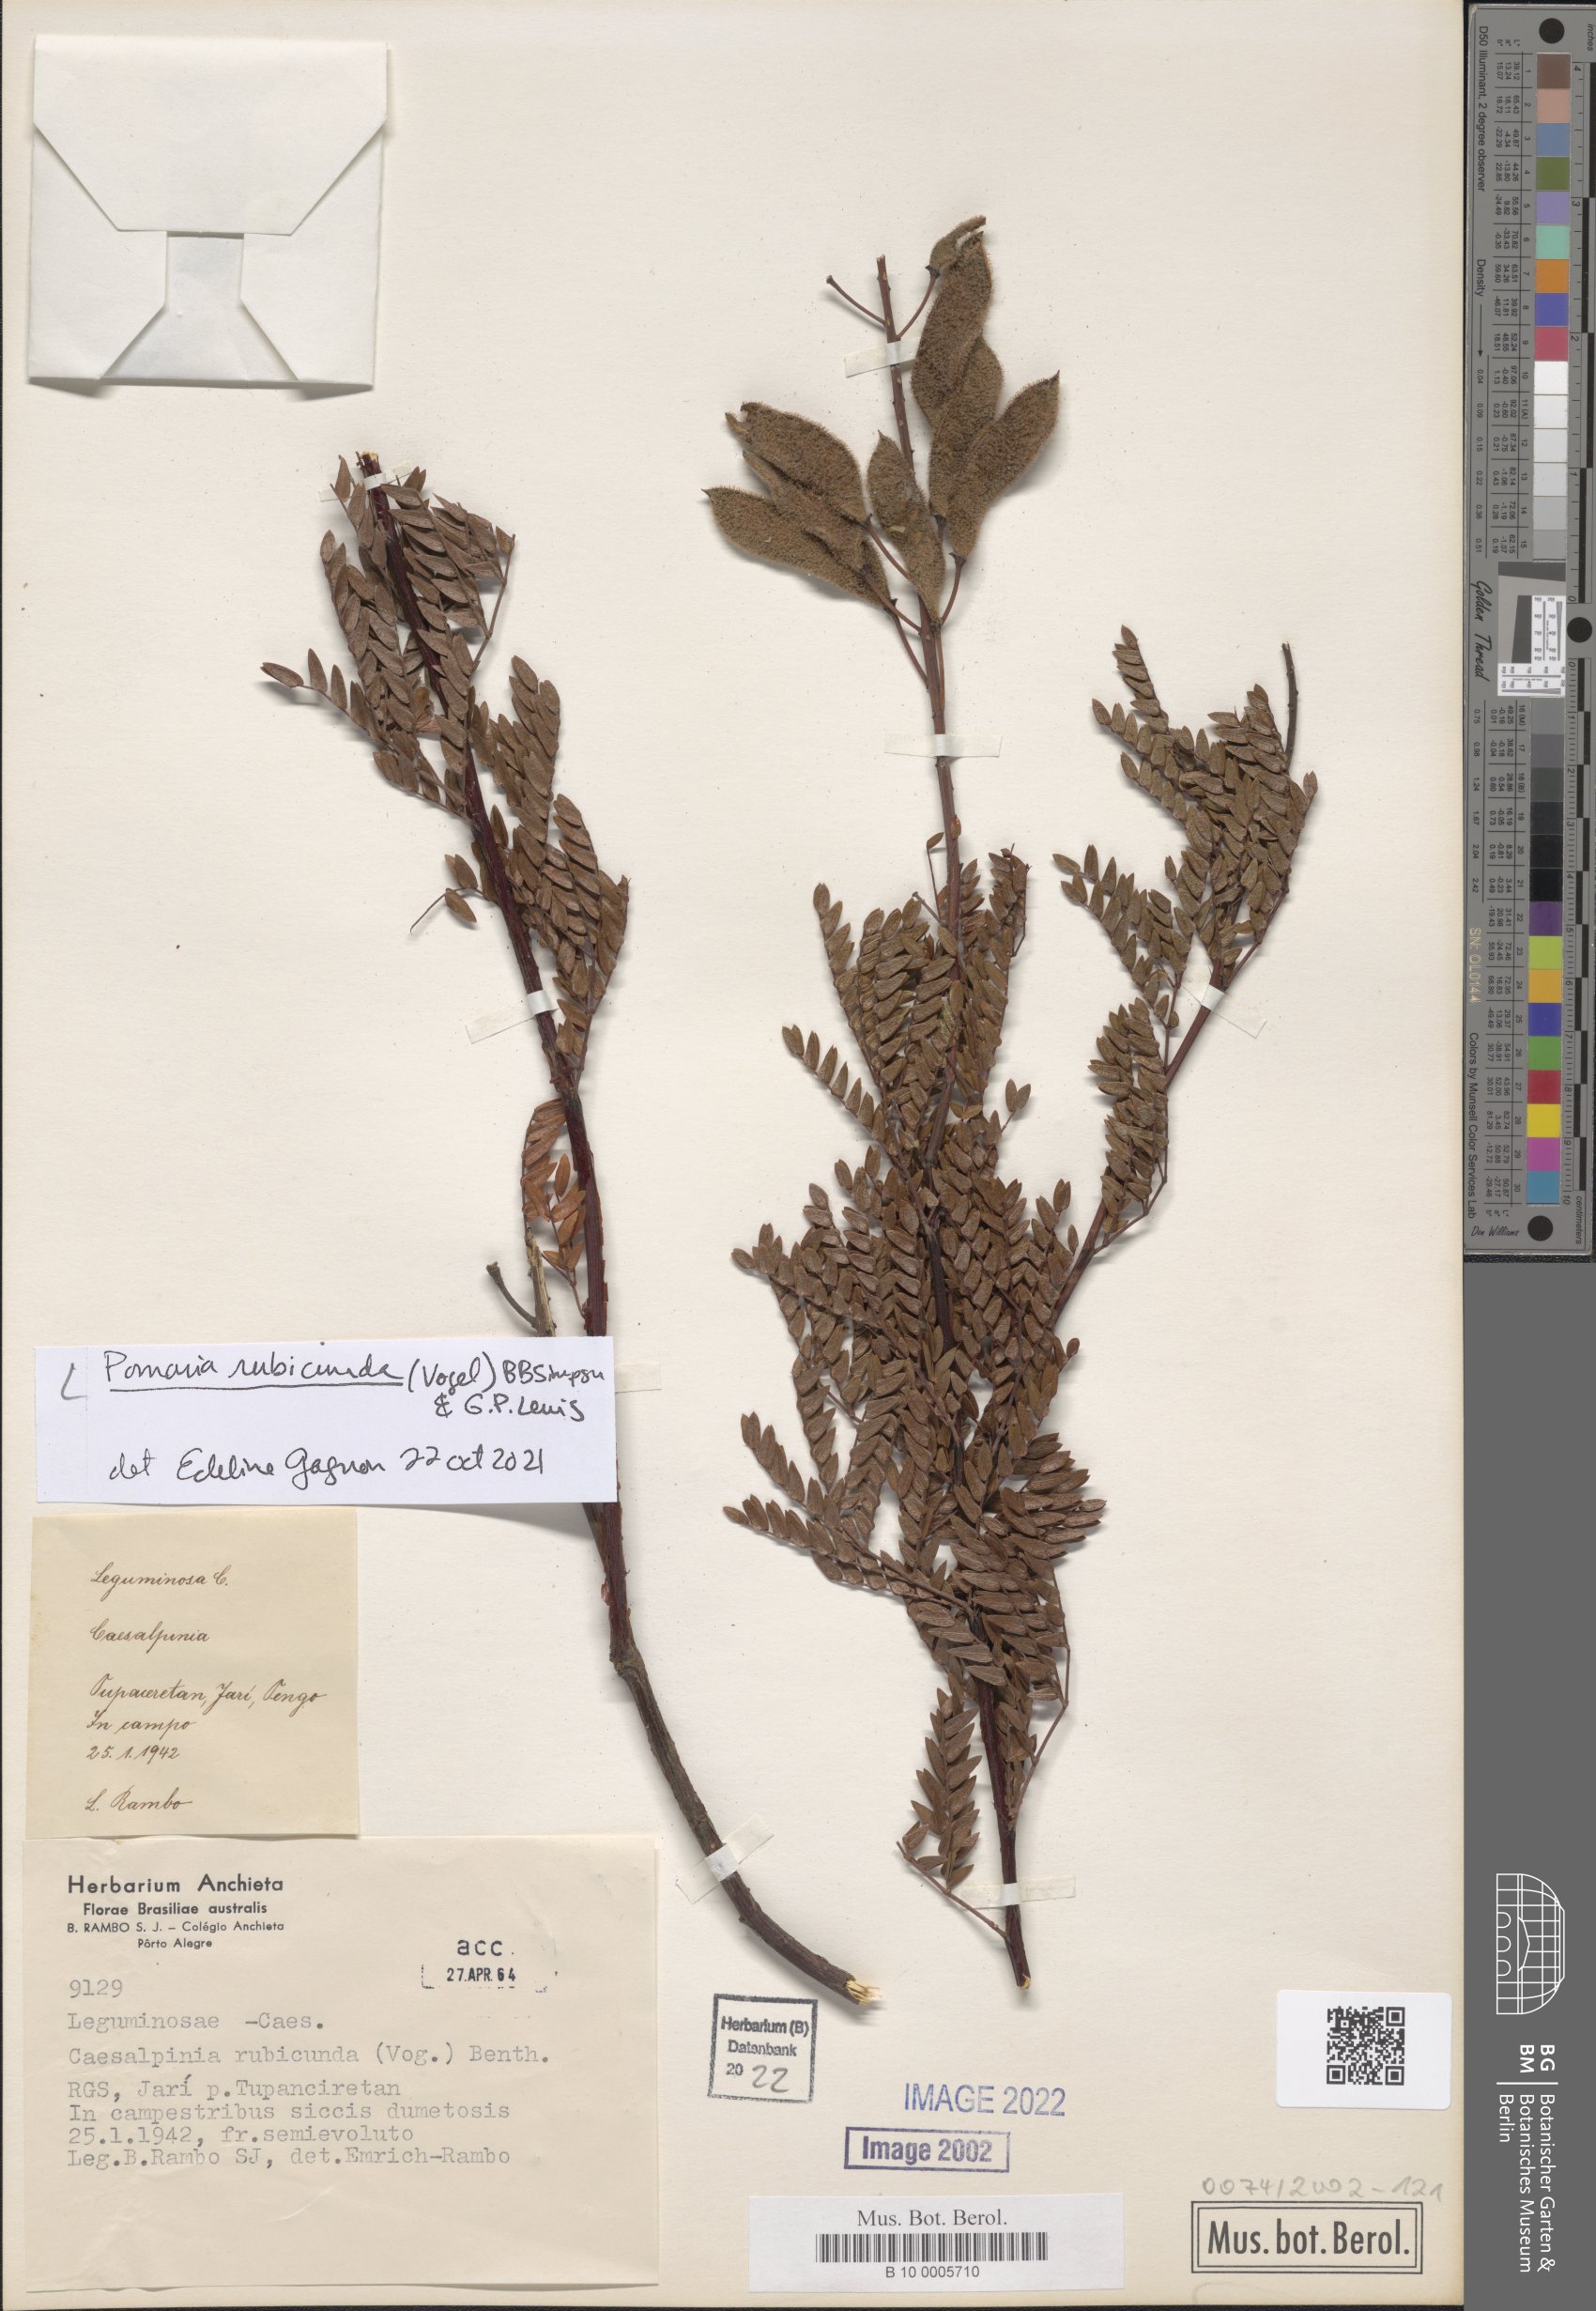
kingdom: Plantae
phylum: Tracheophyta
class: Magnoliopsida
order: Fabales
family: Fabaceae
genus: Pomaria
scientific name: Pomaria rubicunda
